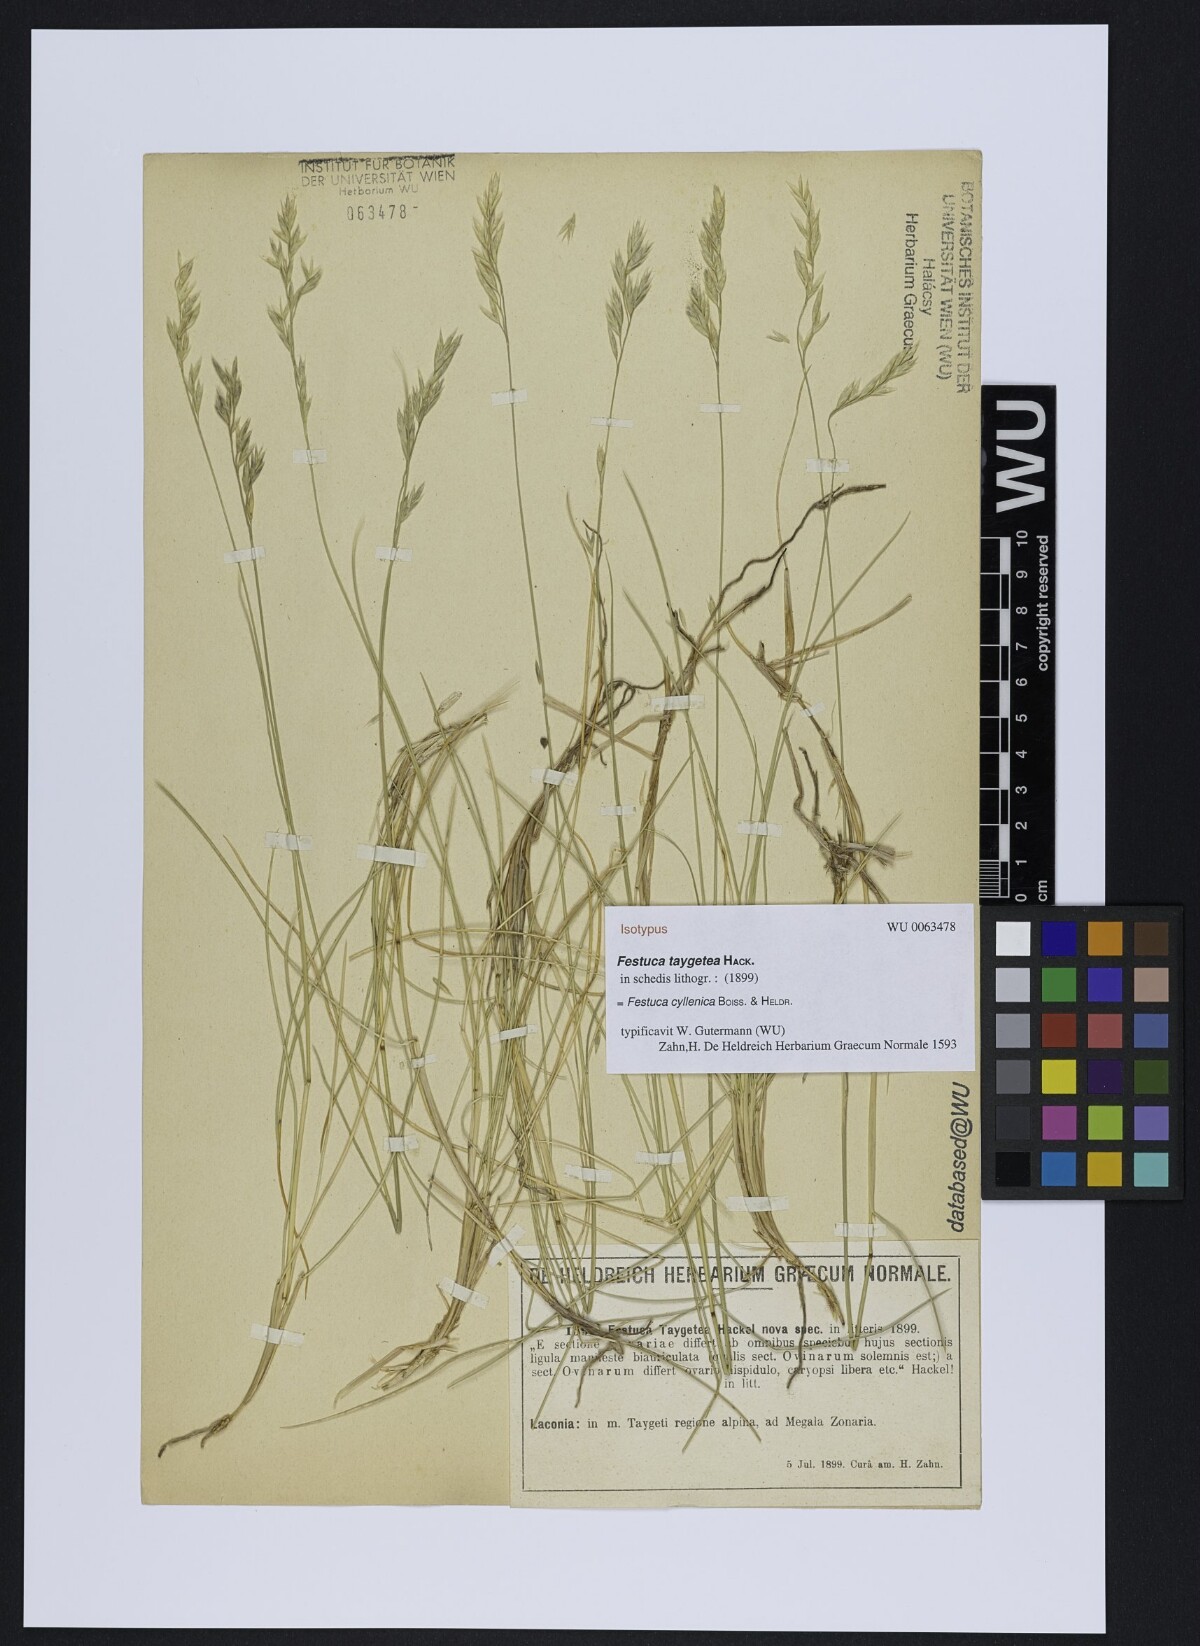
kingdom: Plantae
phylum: Tracheophyta
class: Liliopsida
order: Poales
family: Poaceae
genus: Festuca
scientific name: Festuca vaginata
